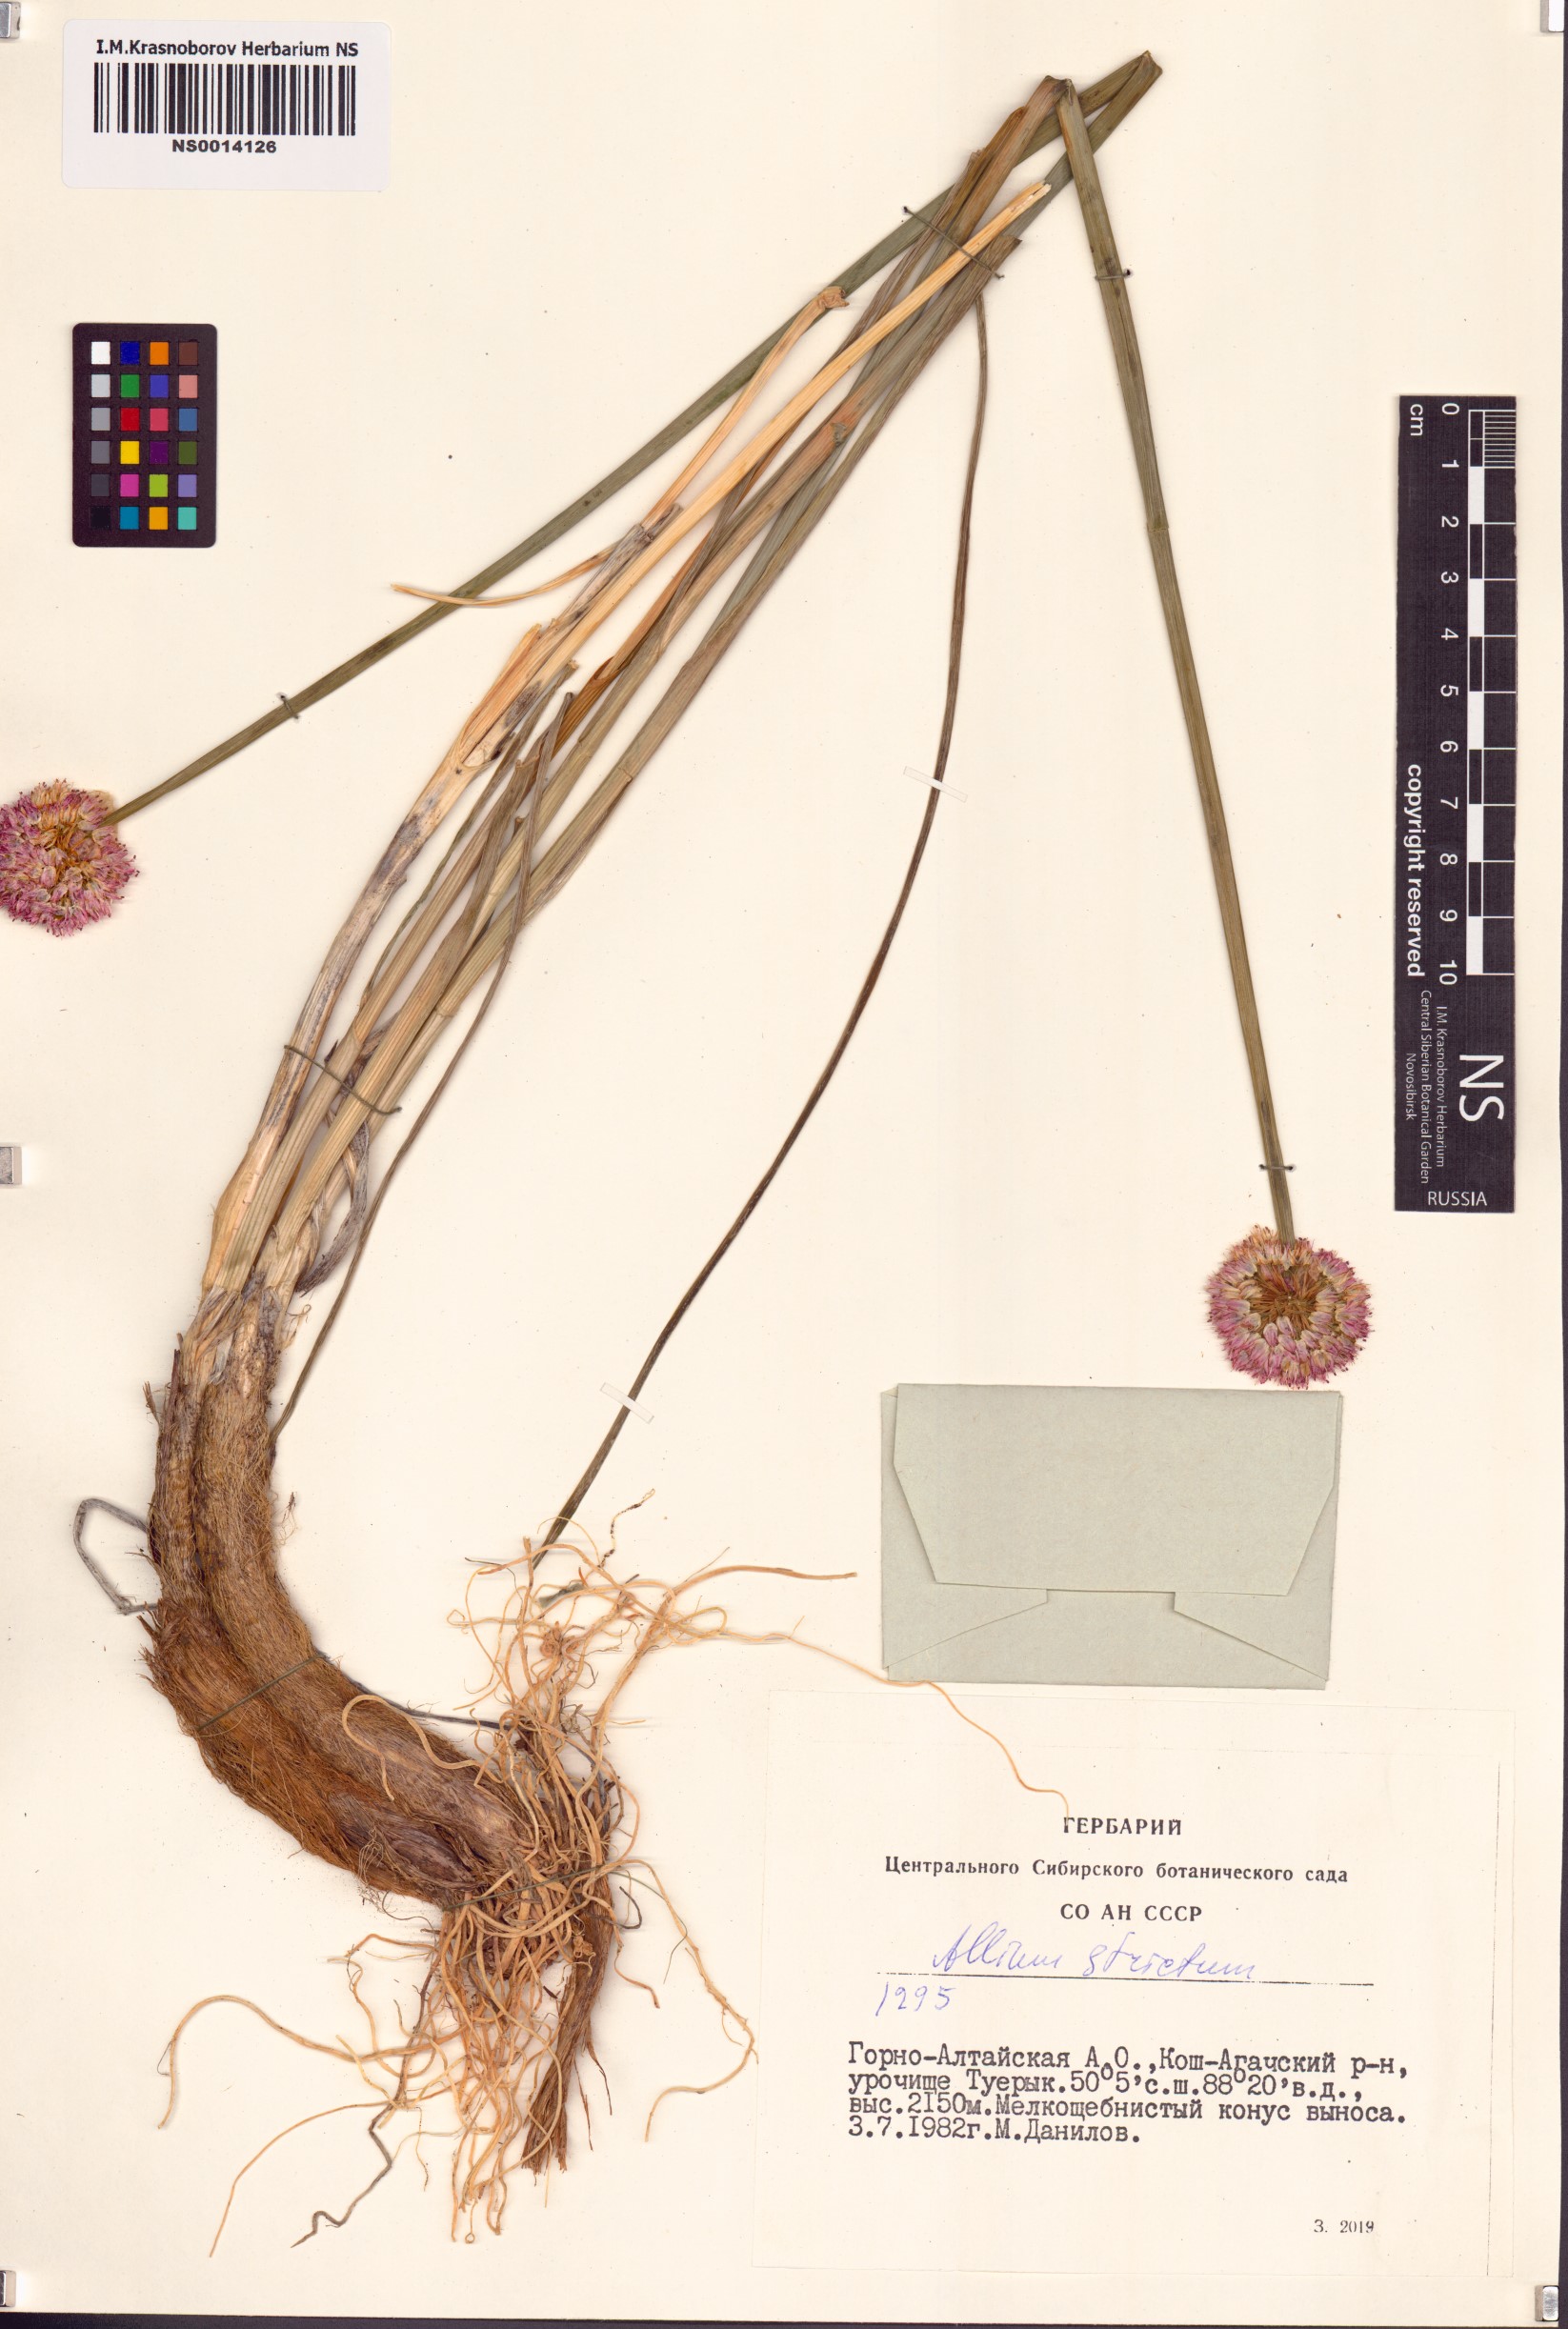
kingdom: Plantae
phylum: Tracheophyta
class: Liliopsida
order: Asparagales
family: Amaryllidaceae
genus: Allium
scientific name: Allium strictum
